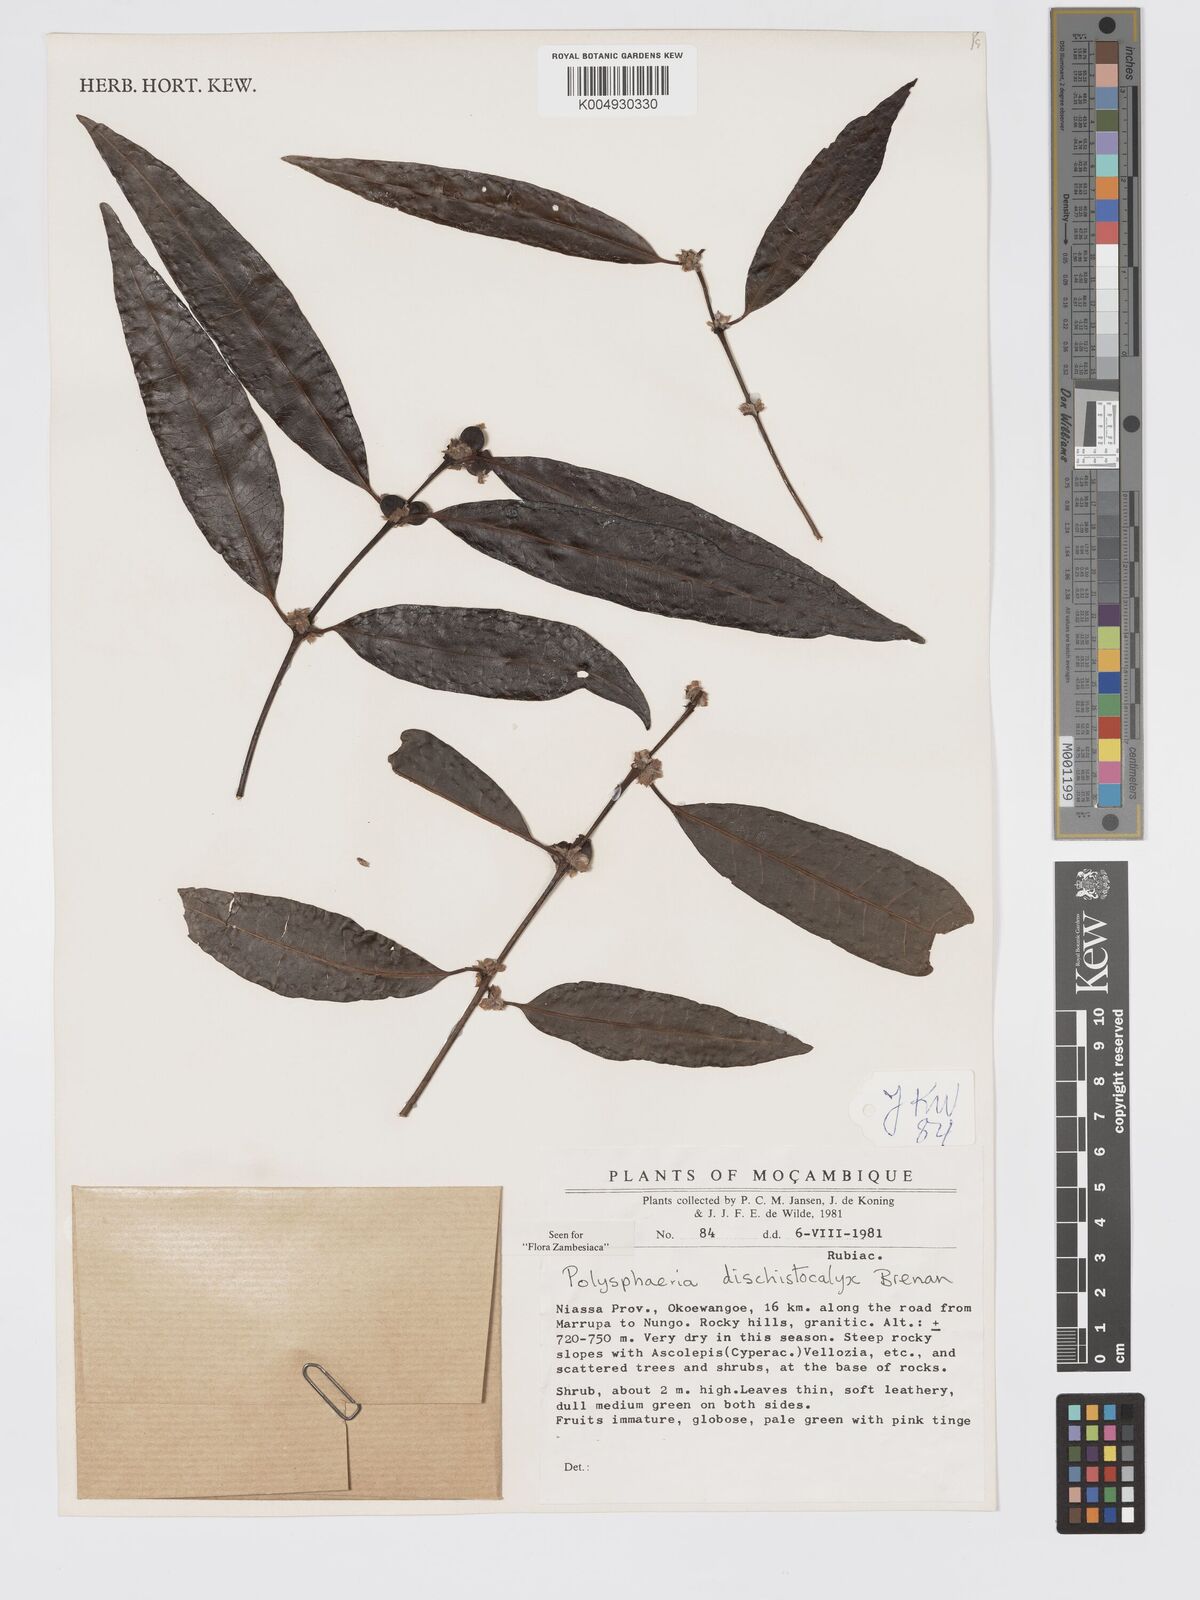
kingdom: Plantae
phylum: Tracheophyta
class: Magnoliopsida
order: Gentianales
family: Rubiaceae
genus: Polysphaeria
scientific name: Polysphaeria dischistocalyx
